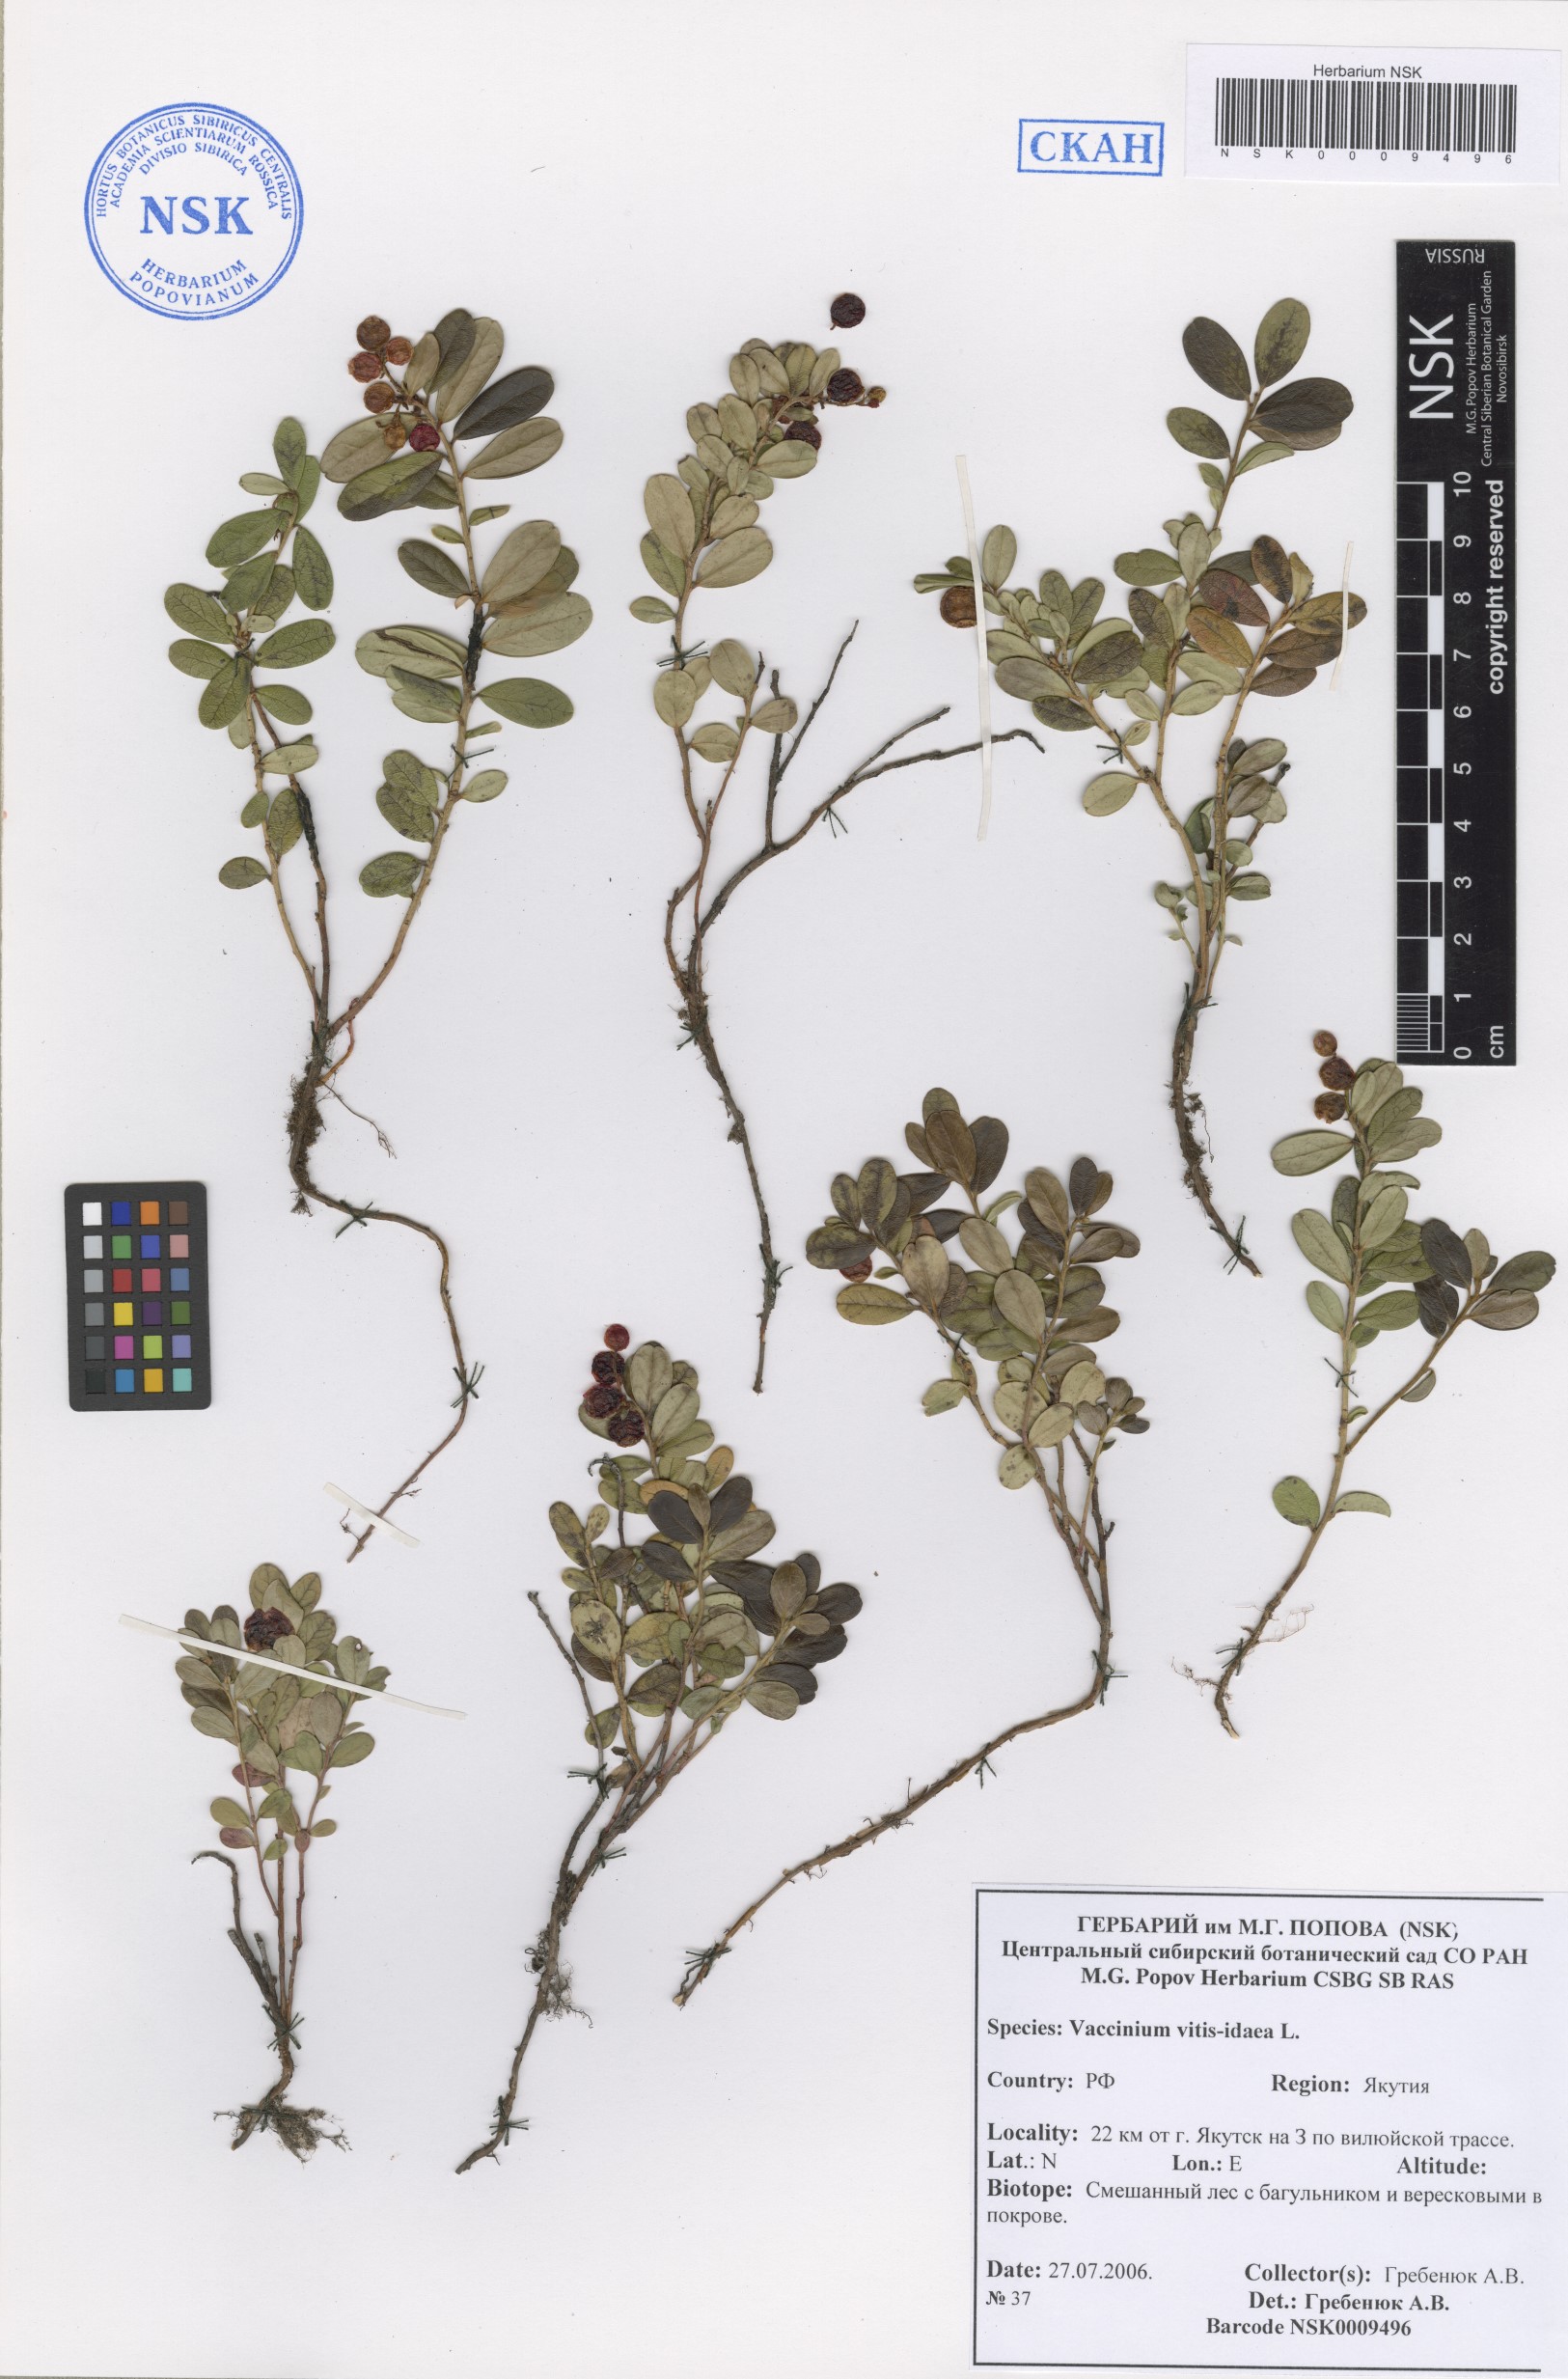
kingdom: Plantae
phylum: Tracheophyta
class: Magnoliopsida
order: Ericales
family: Ericaceae
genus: Vaccinium
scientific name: Vaccinium vitis-idaea
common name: Cowberry
